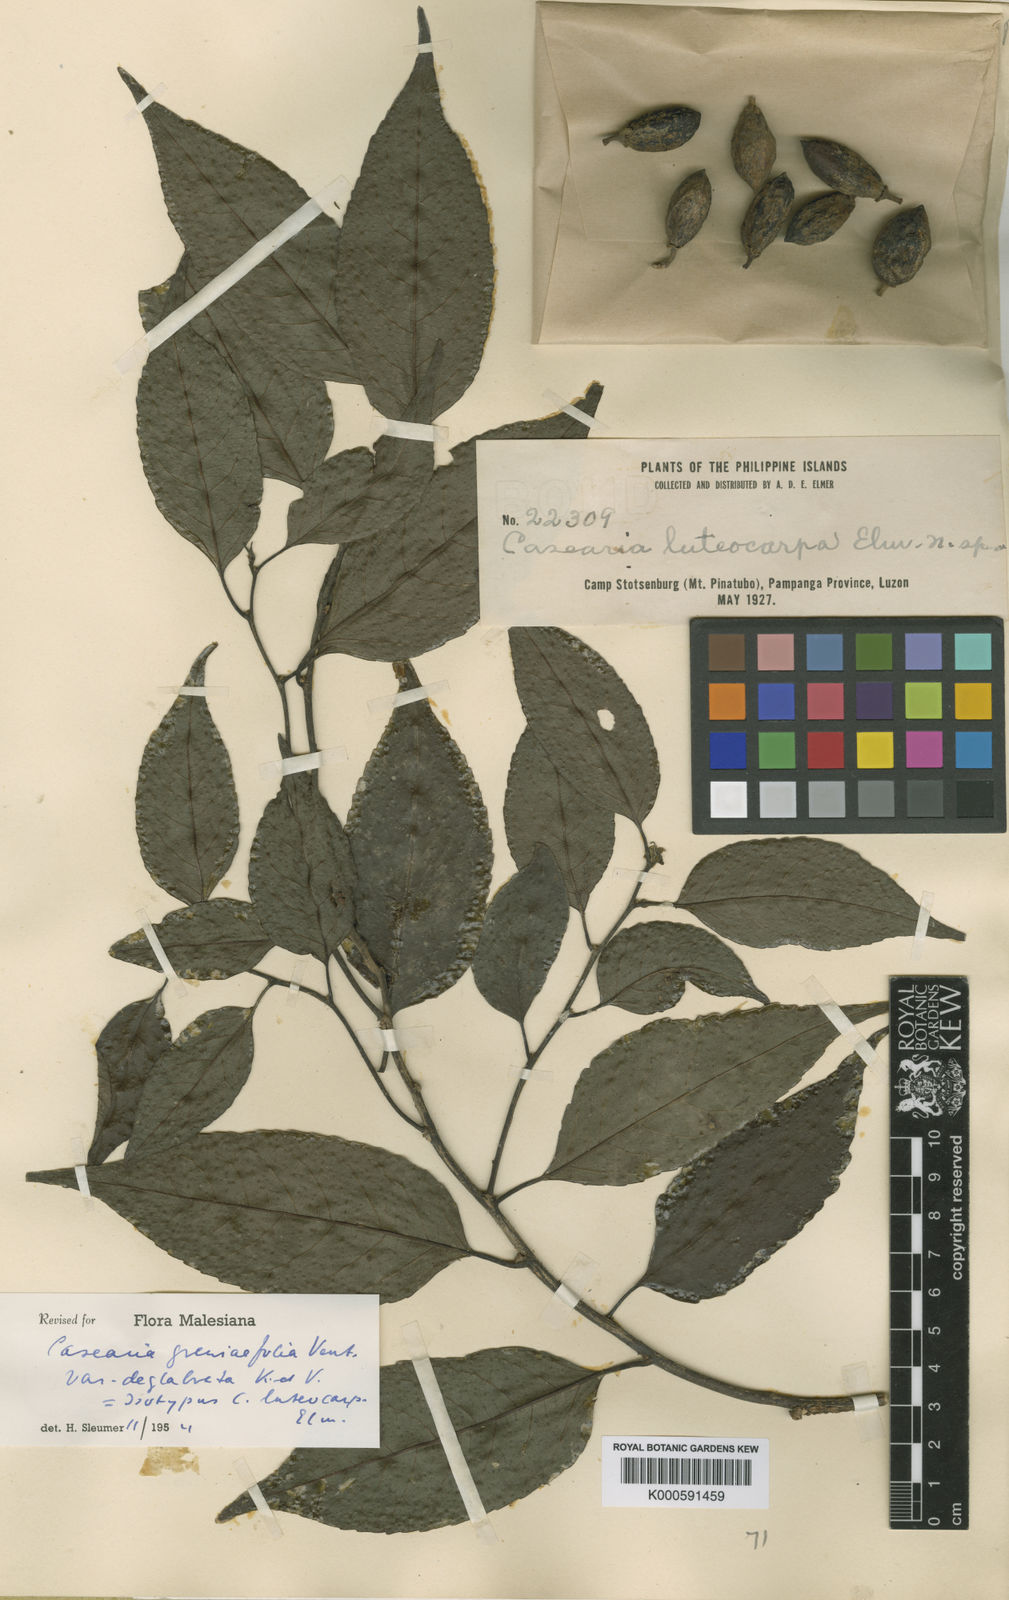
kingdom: Plantae
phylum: Tracheophyta
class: Magnoliopsida
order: Malpighiales
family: Salicaceae
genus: Casearia
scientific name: Casearia grewiifolia
